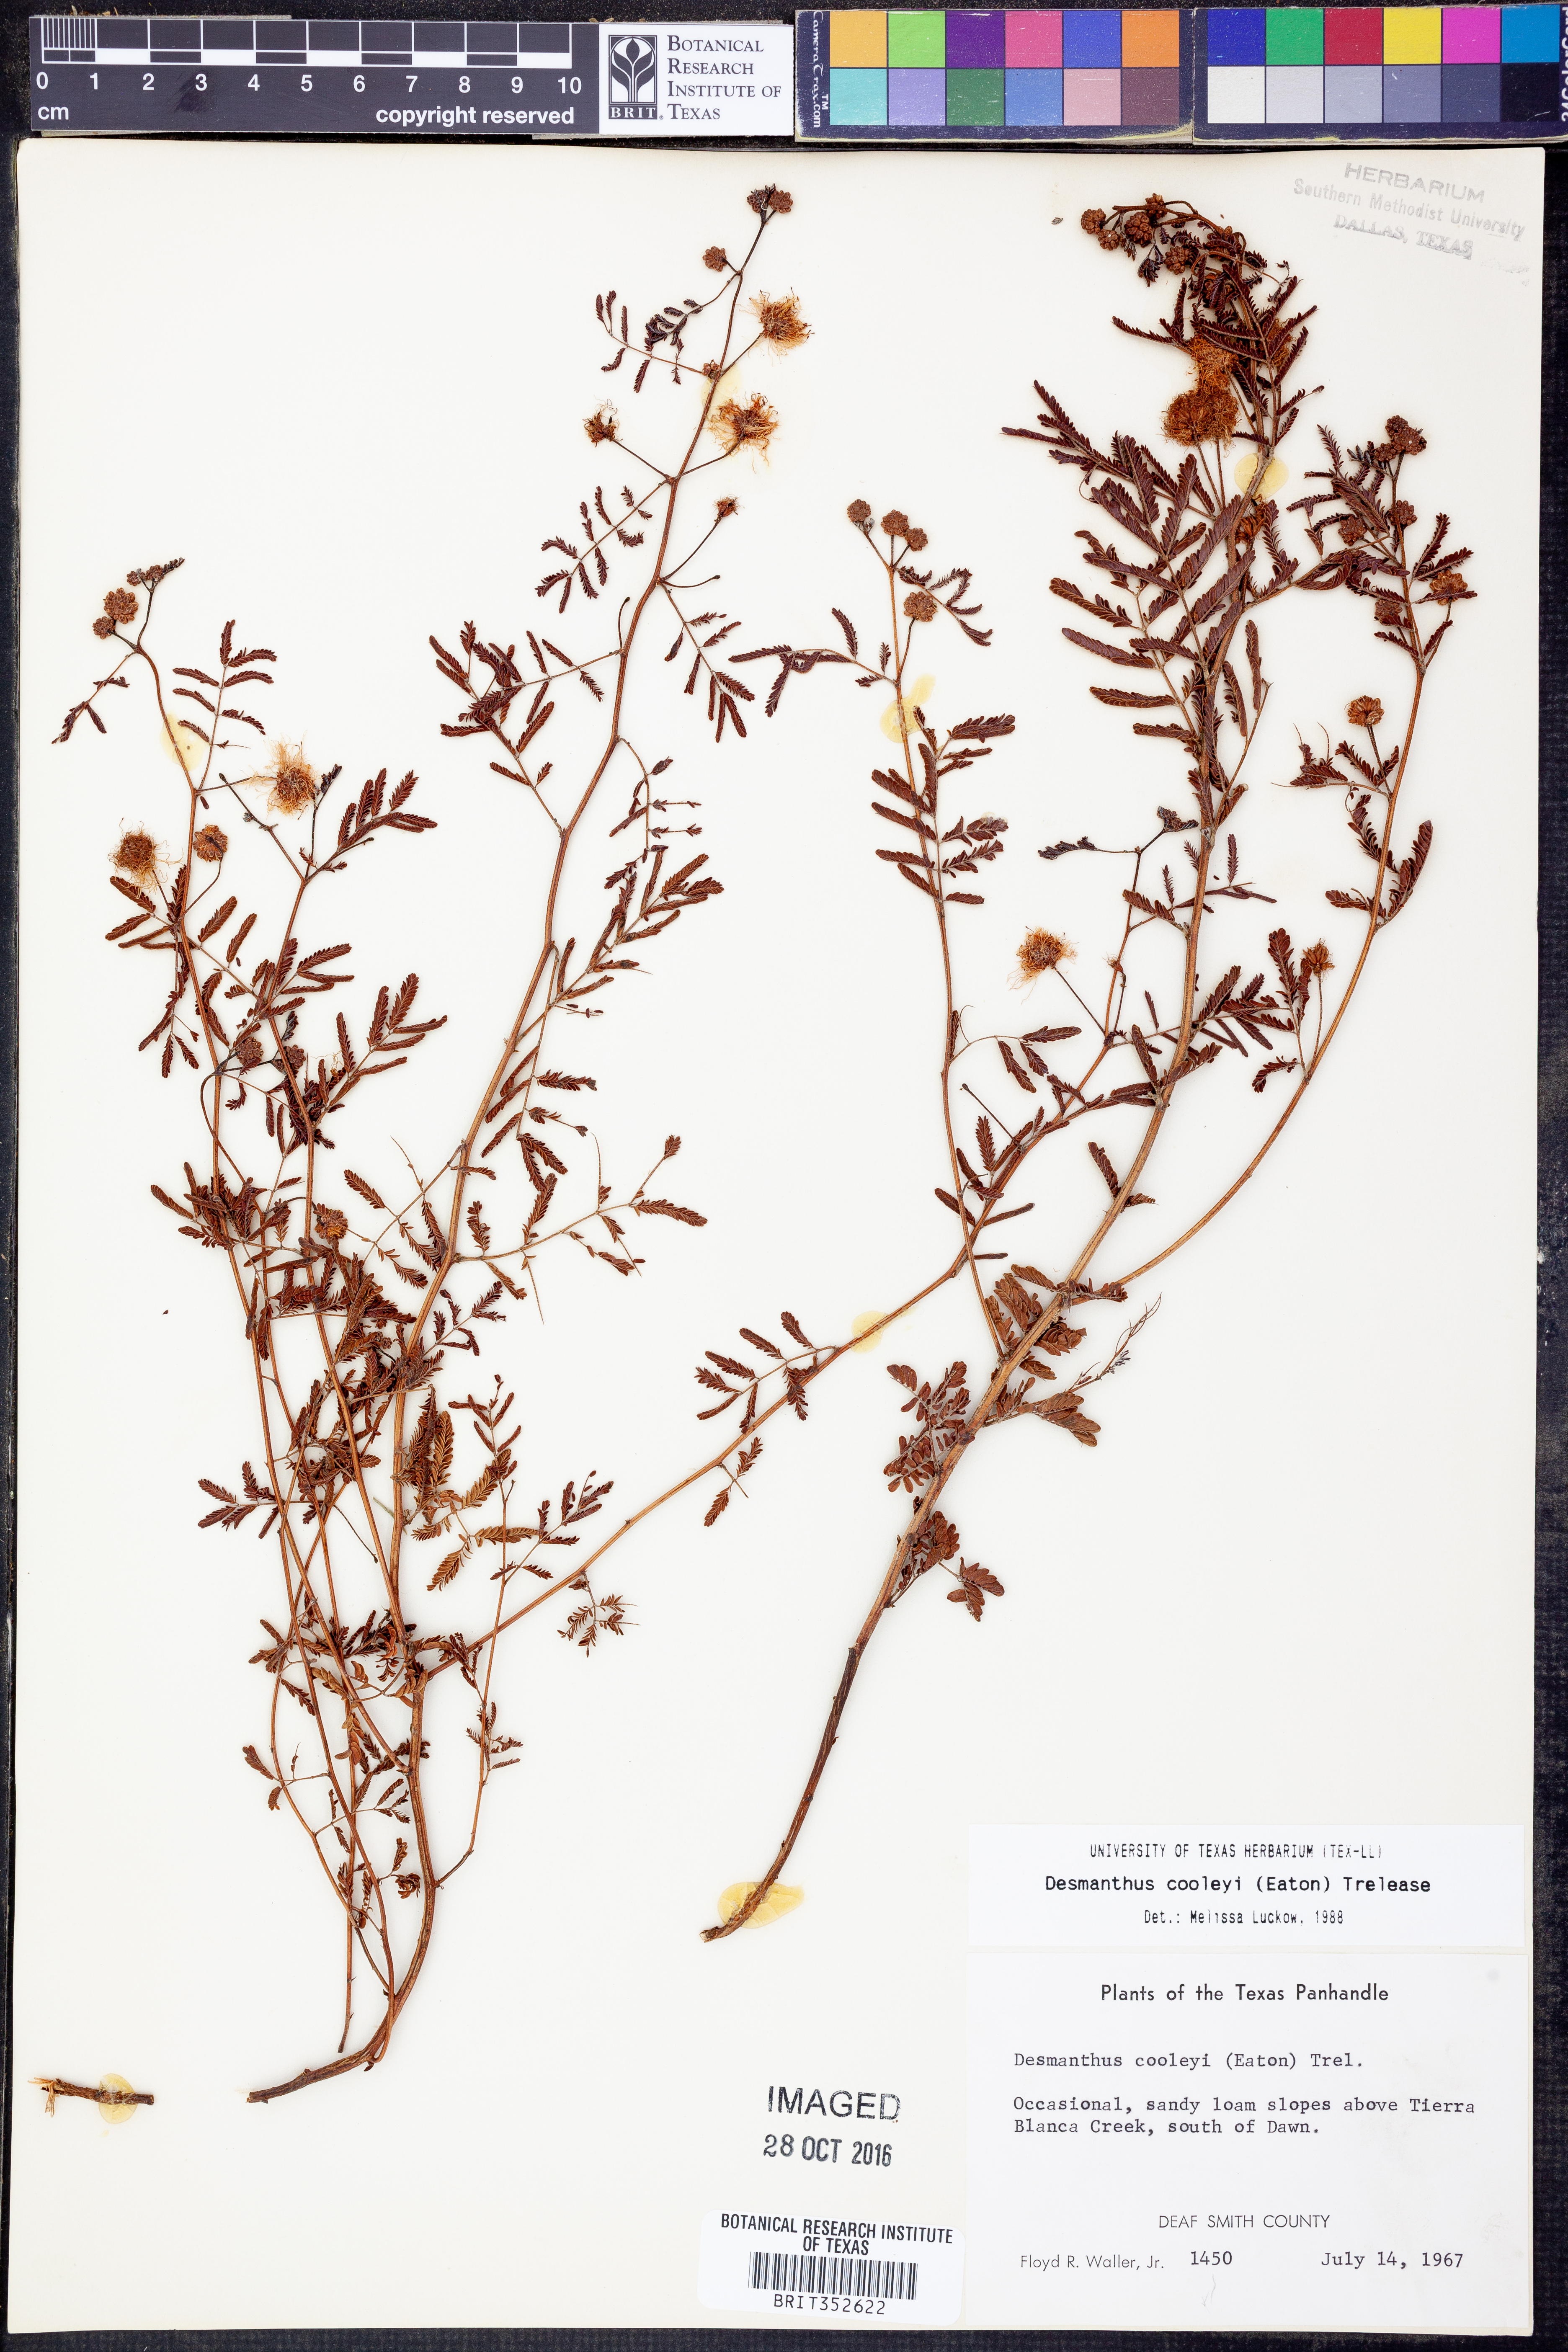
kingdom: Plantae
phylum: Tracheophyta
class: Magnoliopsida
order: Fabales
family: Fabaceae
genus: Desmanthus
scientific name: Desmanthus cooleyi
